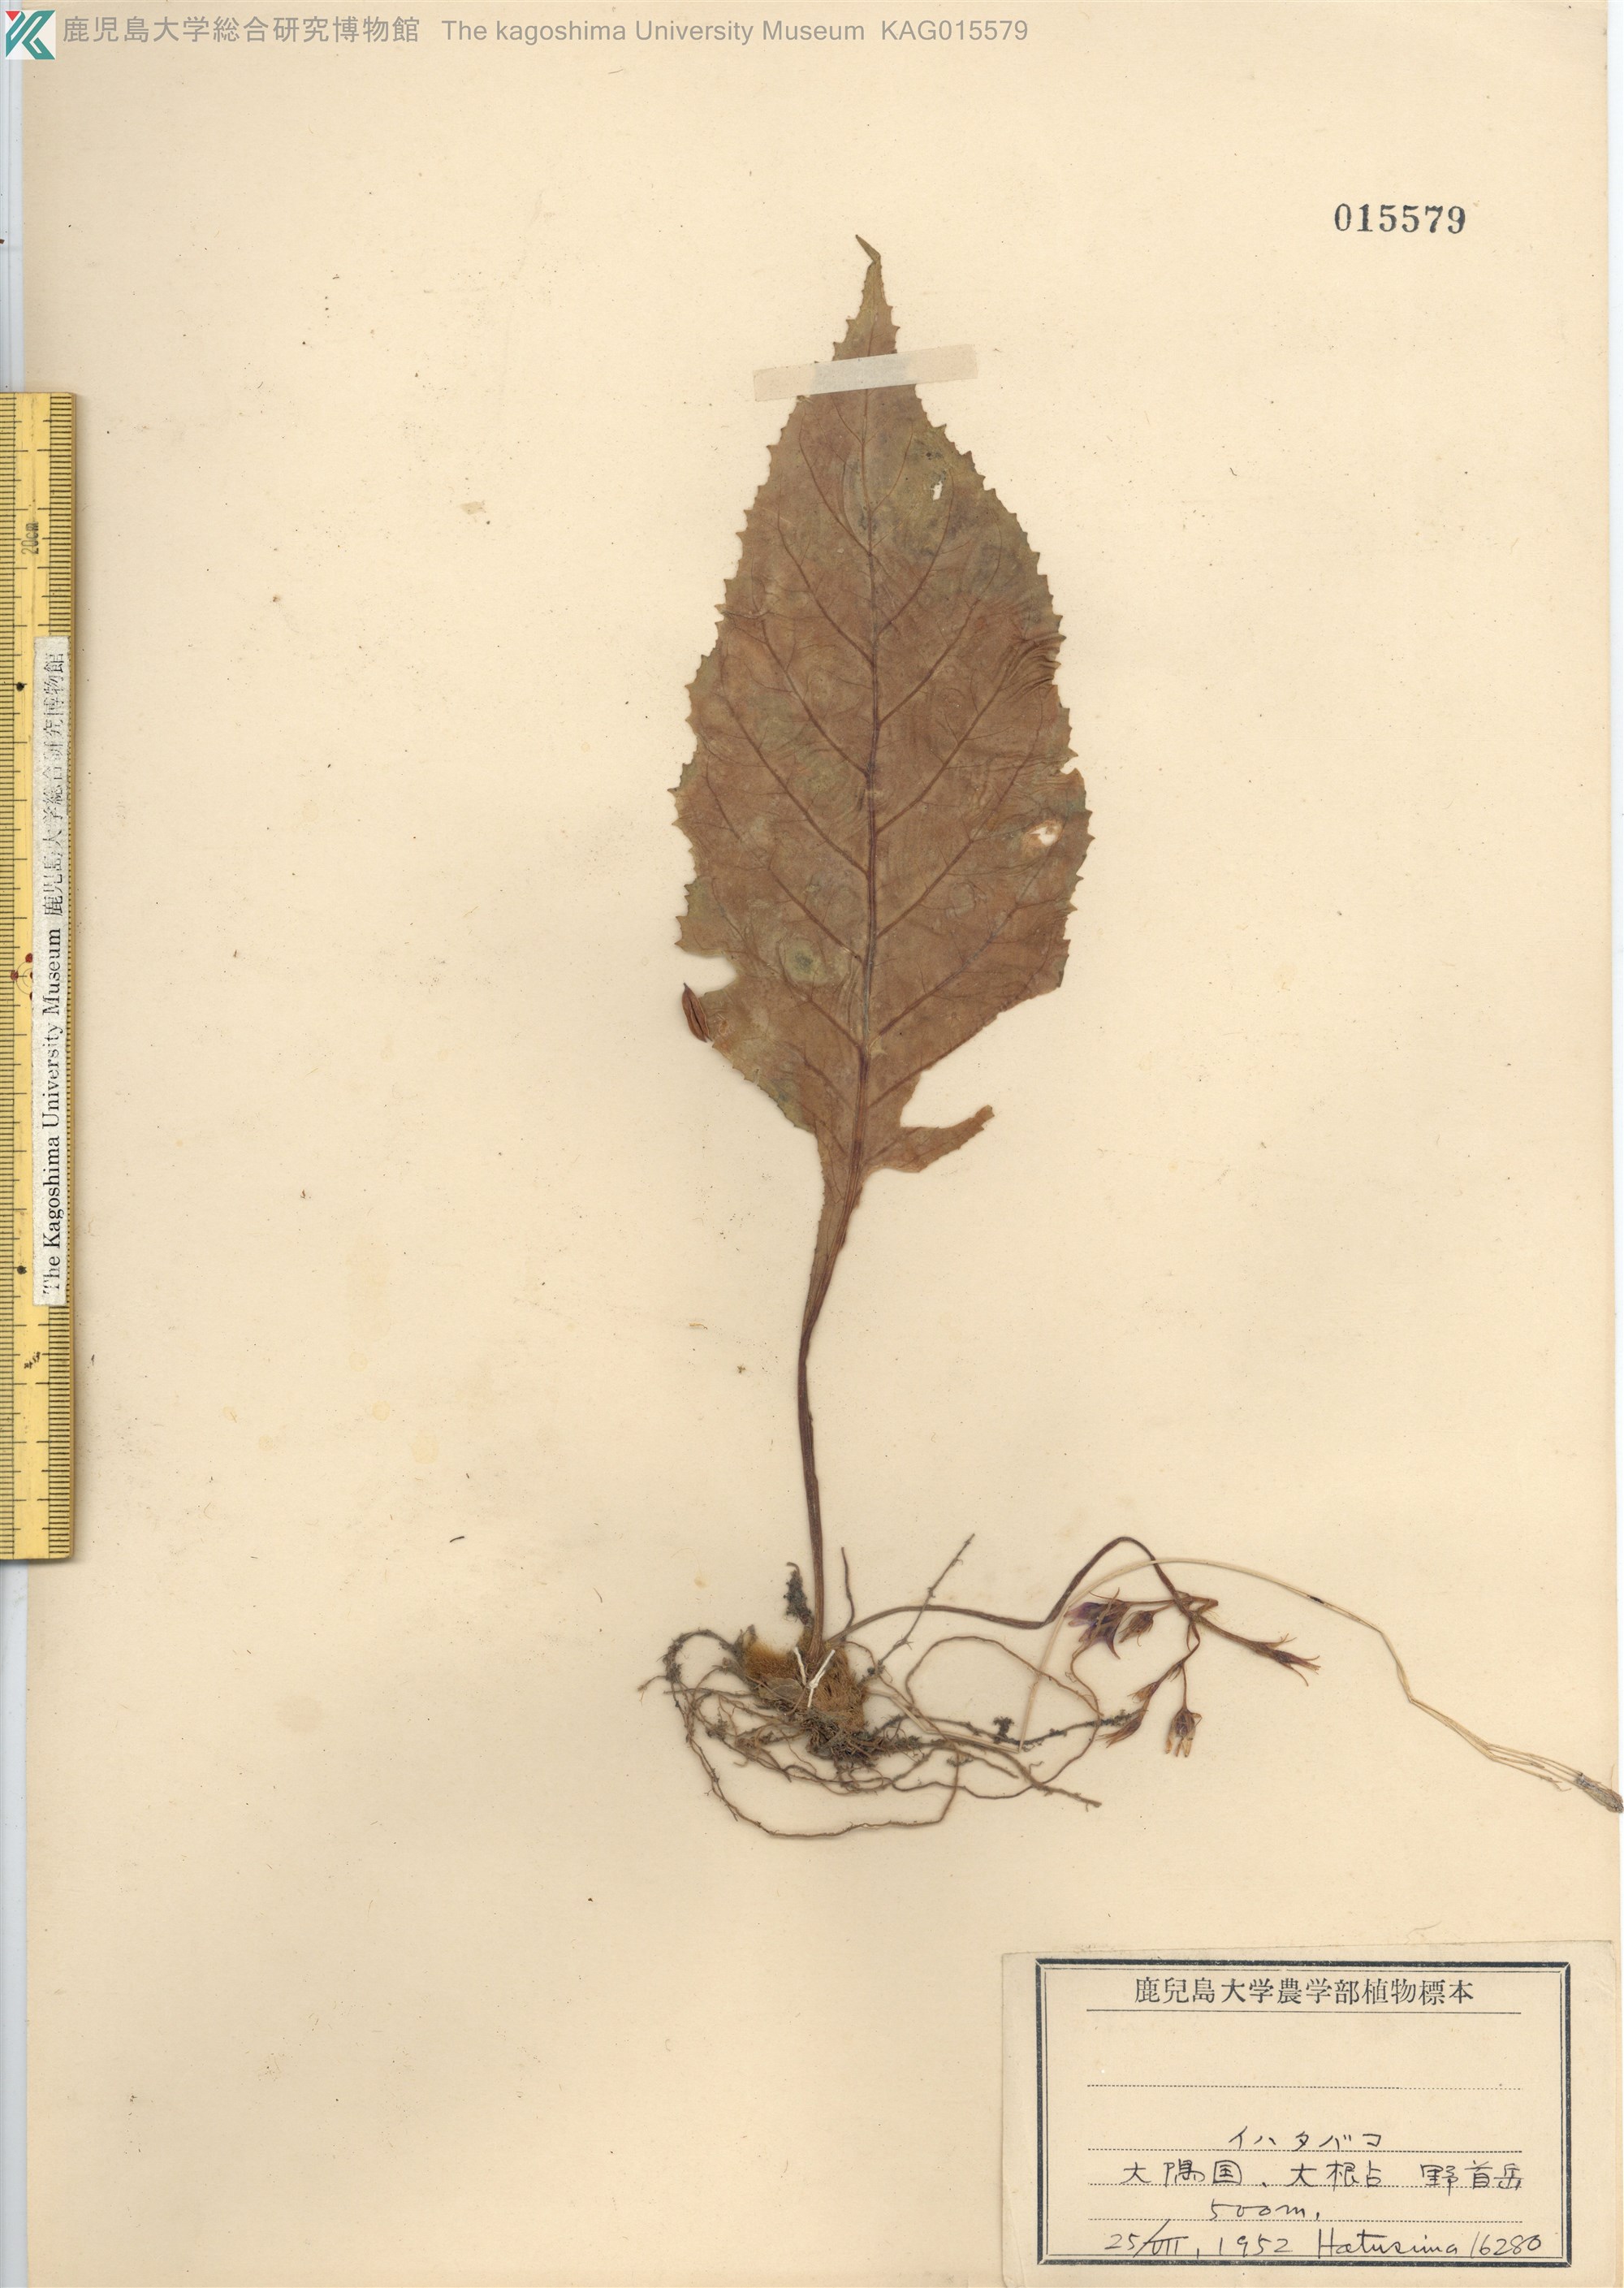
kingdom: Plantae
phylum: Tracheophyta
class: Magnoliopsida
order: Lamiales
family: Gesneriaceae
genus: Conandron
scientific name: Conandron ramondioides
